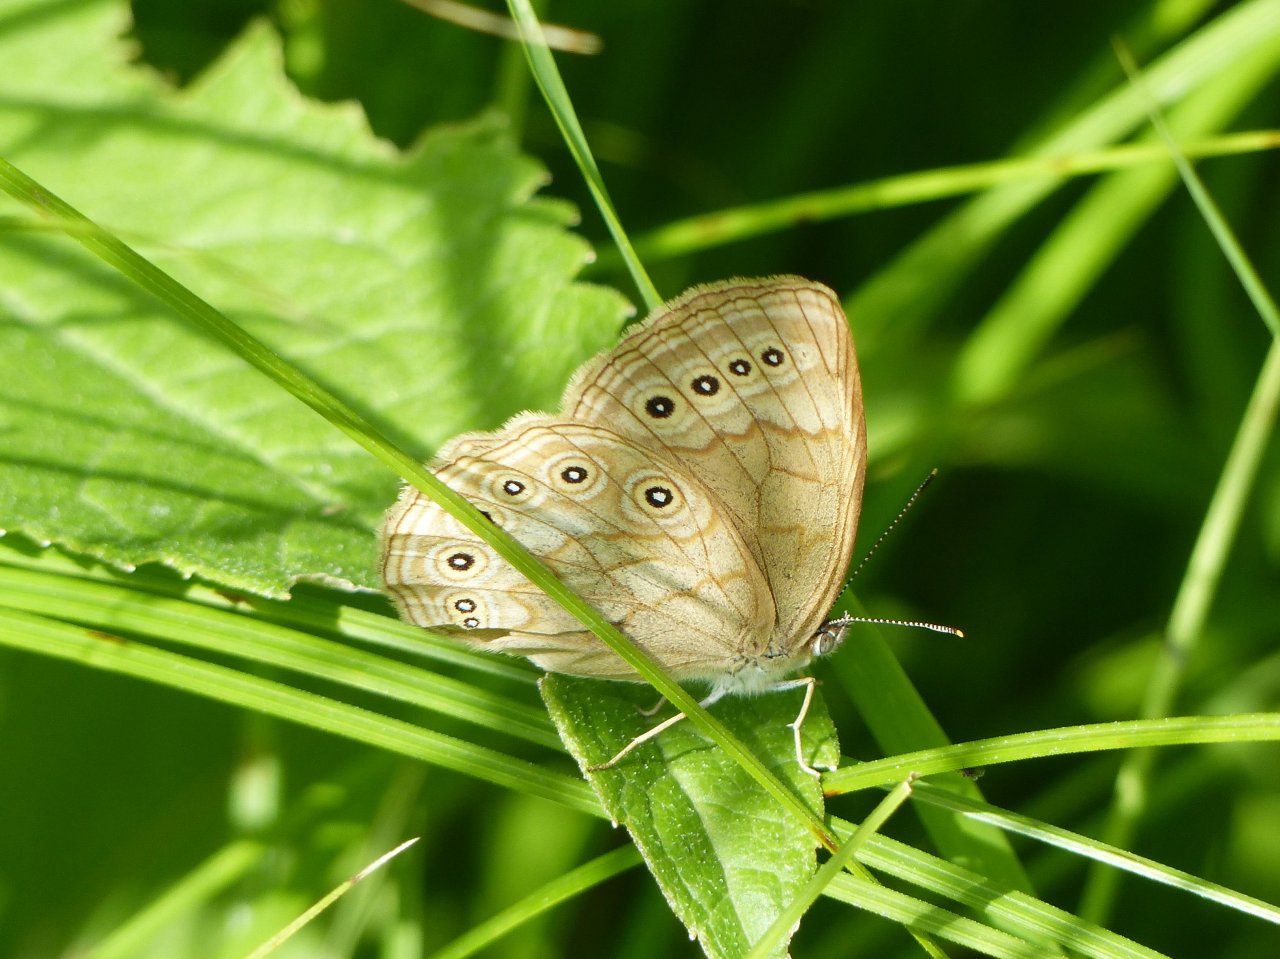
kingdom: Animalia
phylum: Arthropoda
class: Insecta
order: Lepidoptera
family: Nymphalidae
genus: Lethe
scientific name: Lethe eurydice
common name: Eyed Brown
